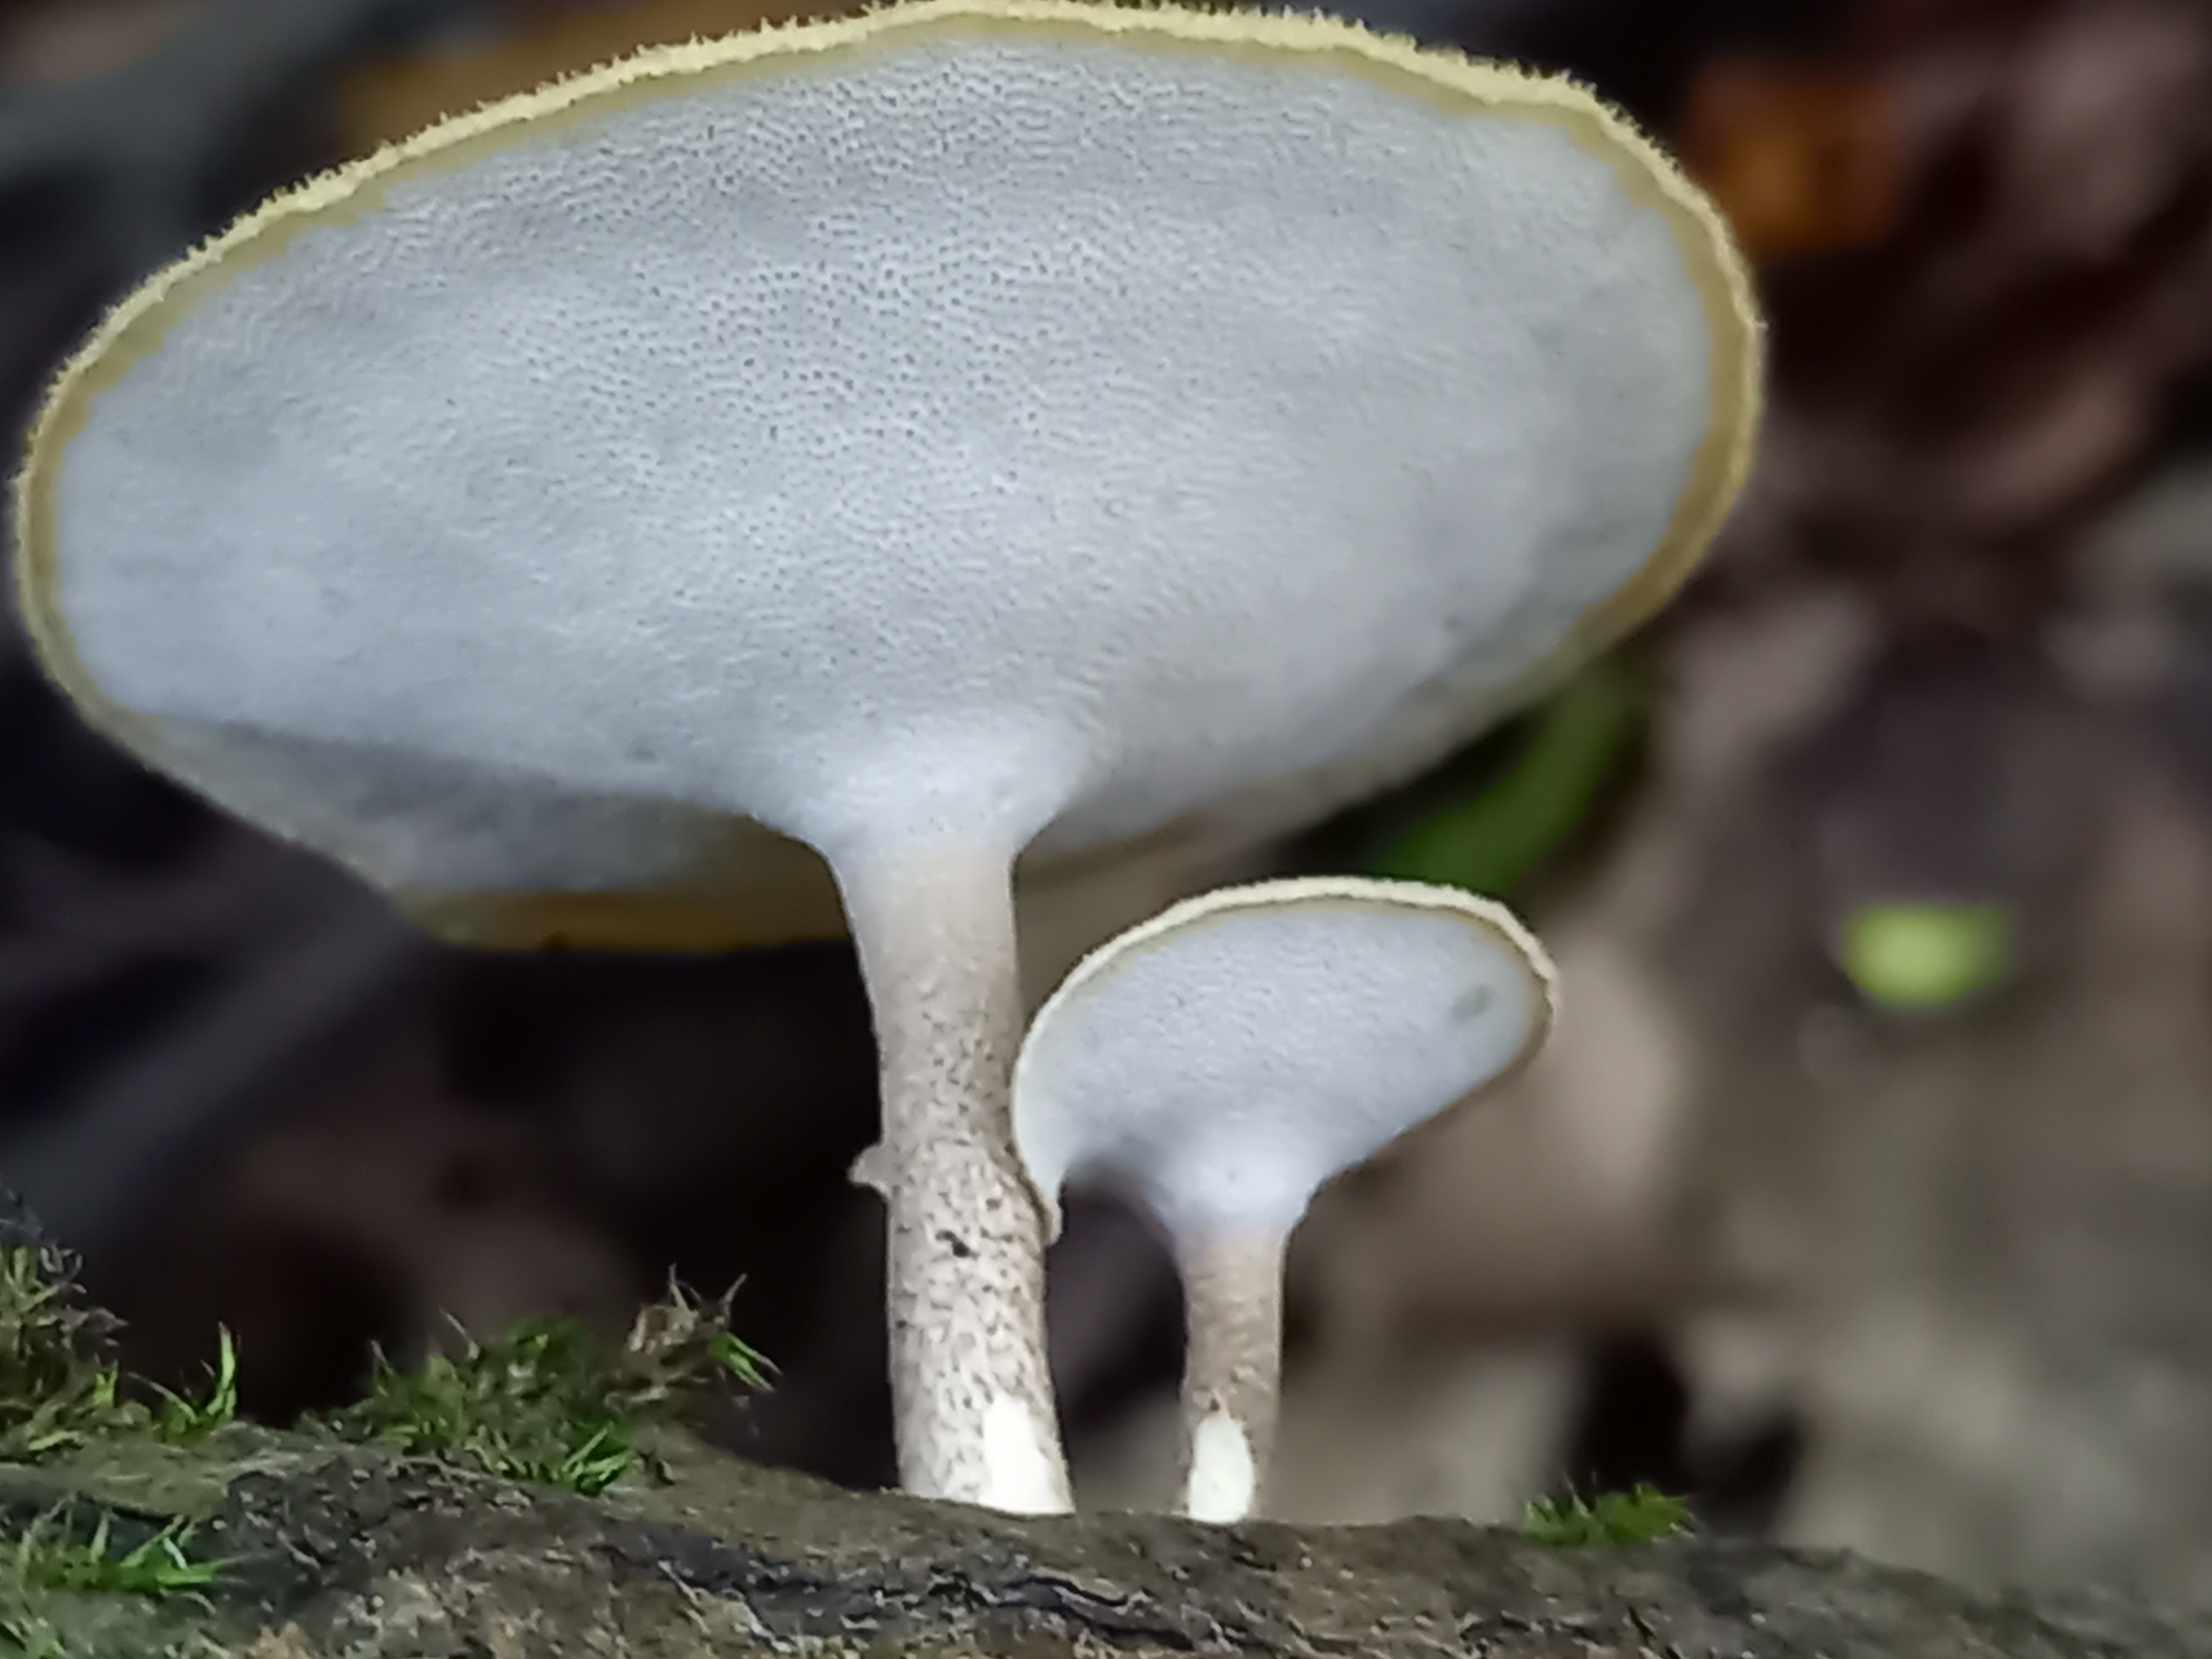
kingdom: Fungi
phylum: Basidiomycota
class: Agaricomycetes
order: Polyporales
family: Polyporaceae
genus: Lentinus
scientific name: Lentinus substrictus
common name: forårs-stilkporesvamp
